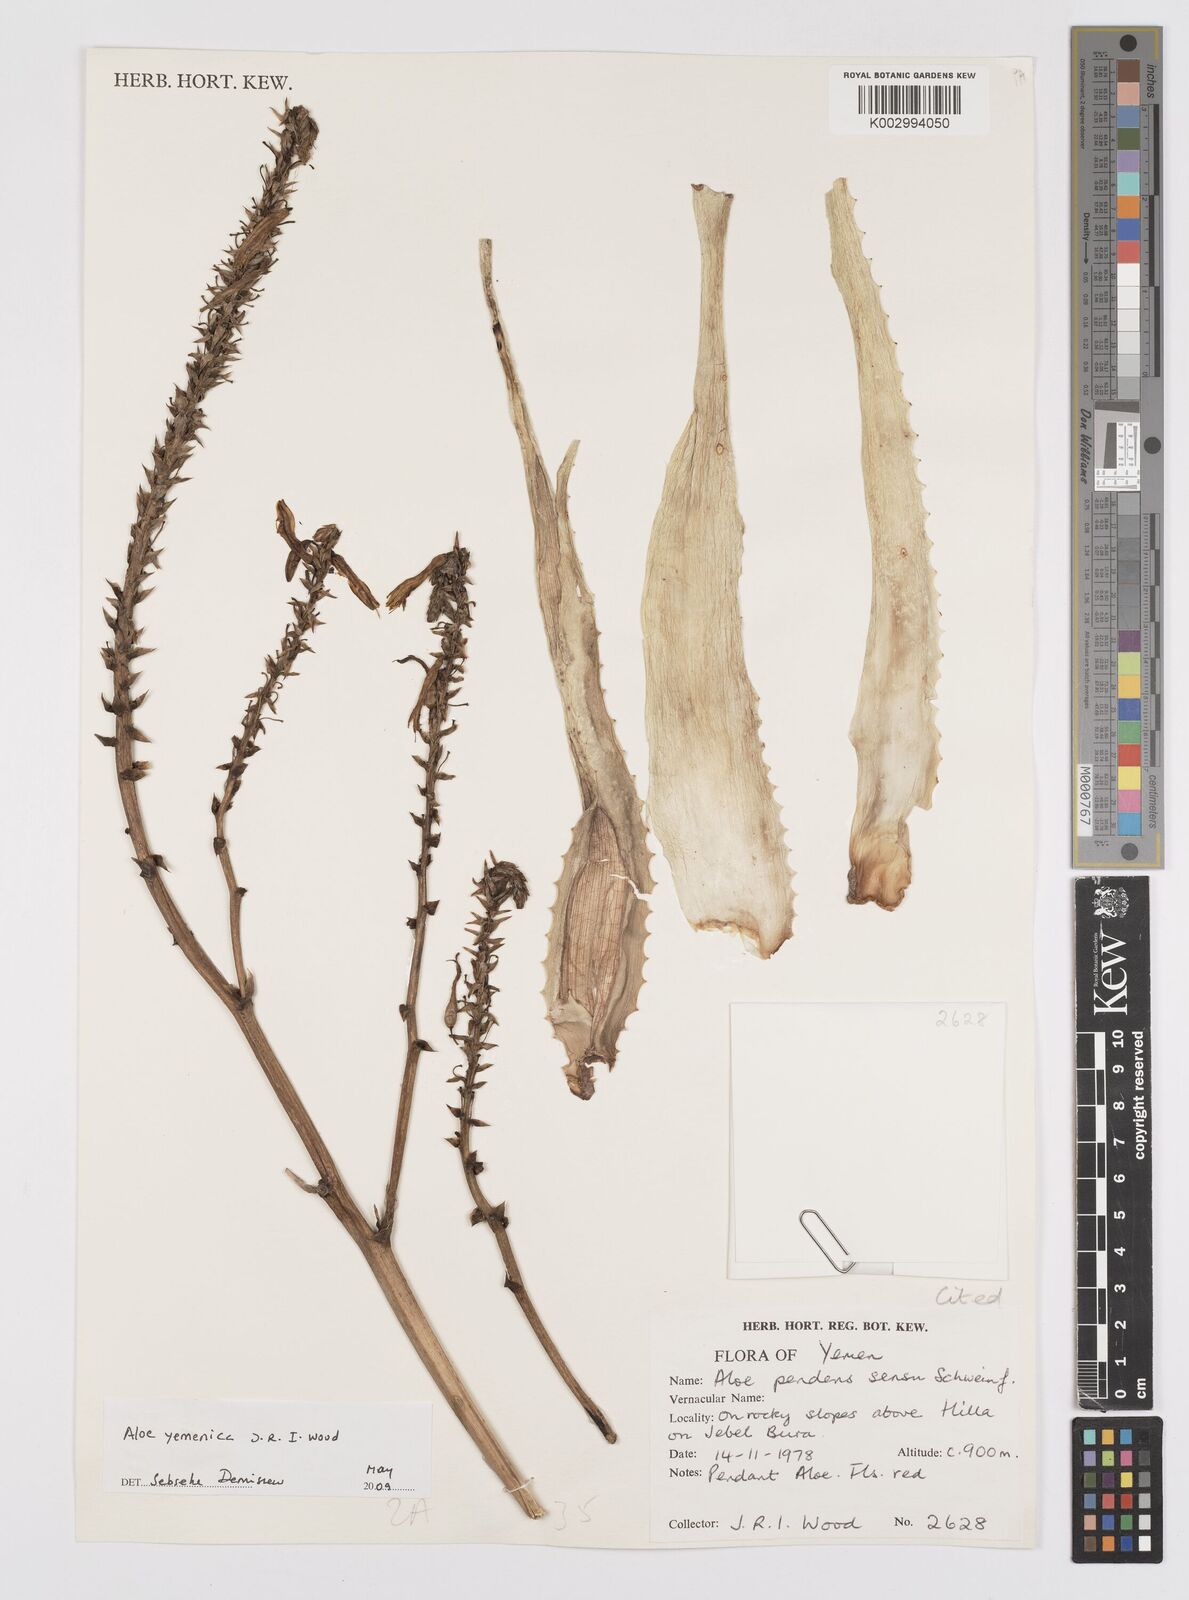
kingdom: Plantae
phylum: Tracheophyta
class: Liliopsida
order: Asparagales
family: Asphodelaceae
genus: Aloe
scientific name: Aloe yemenica
